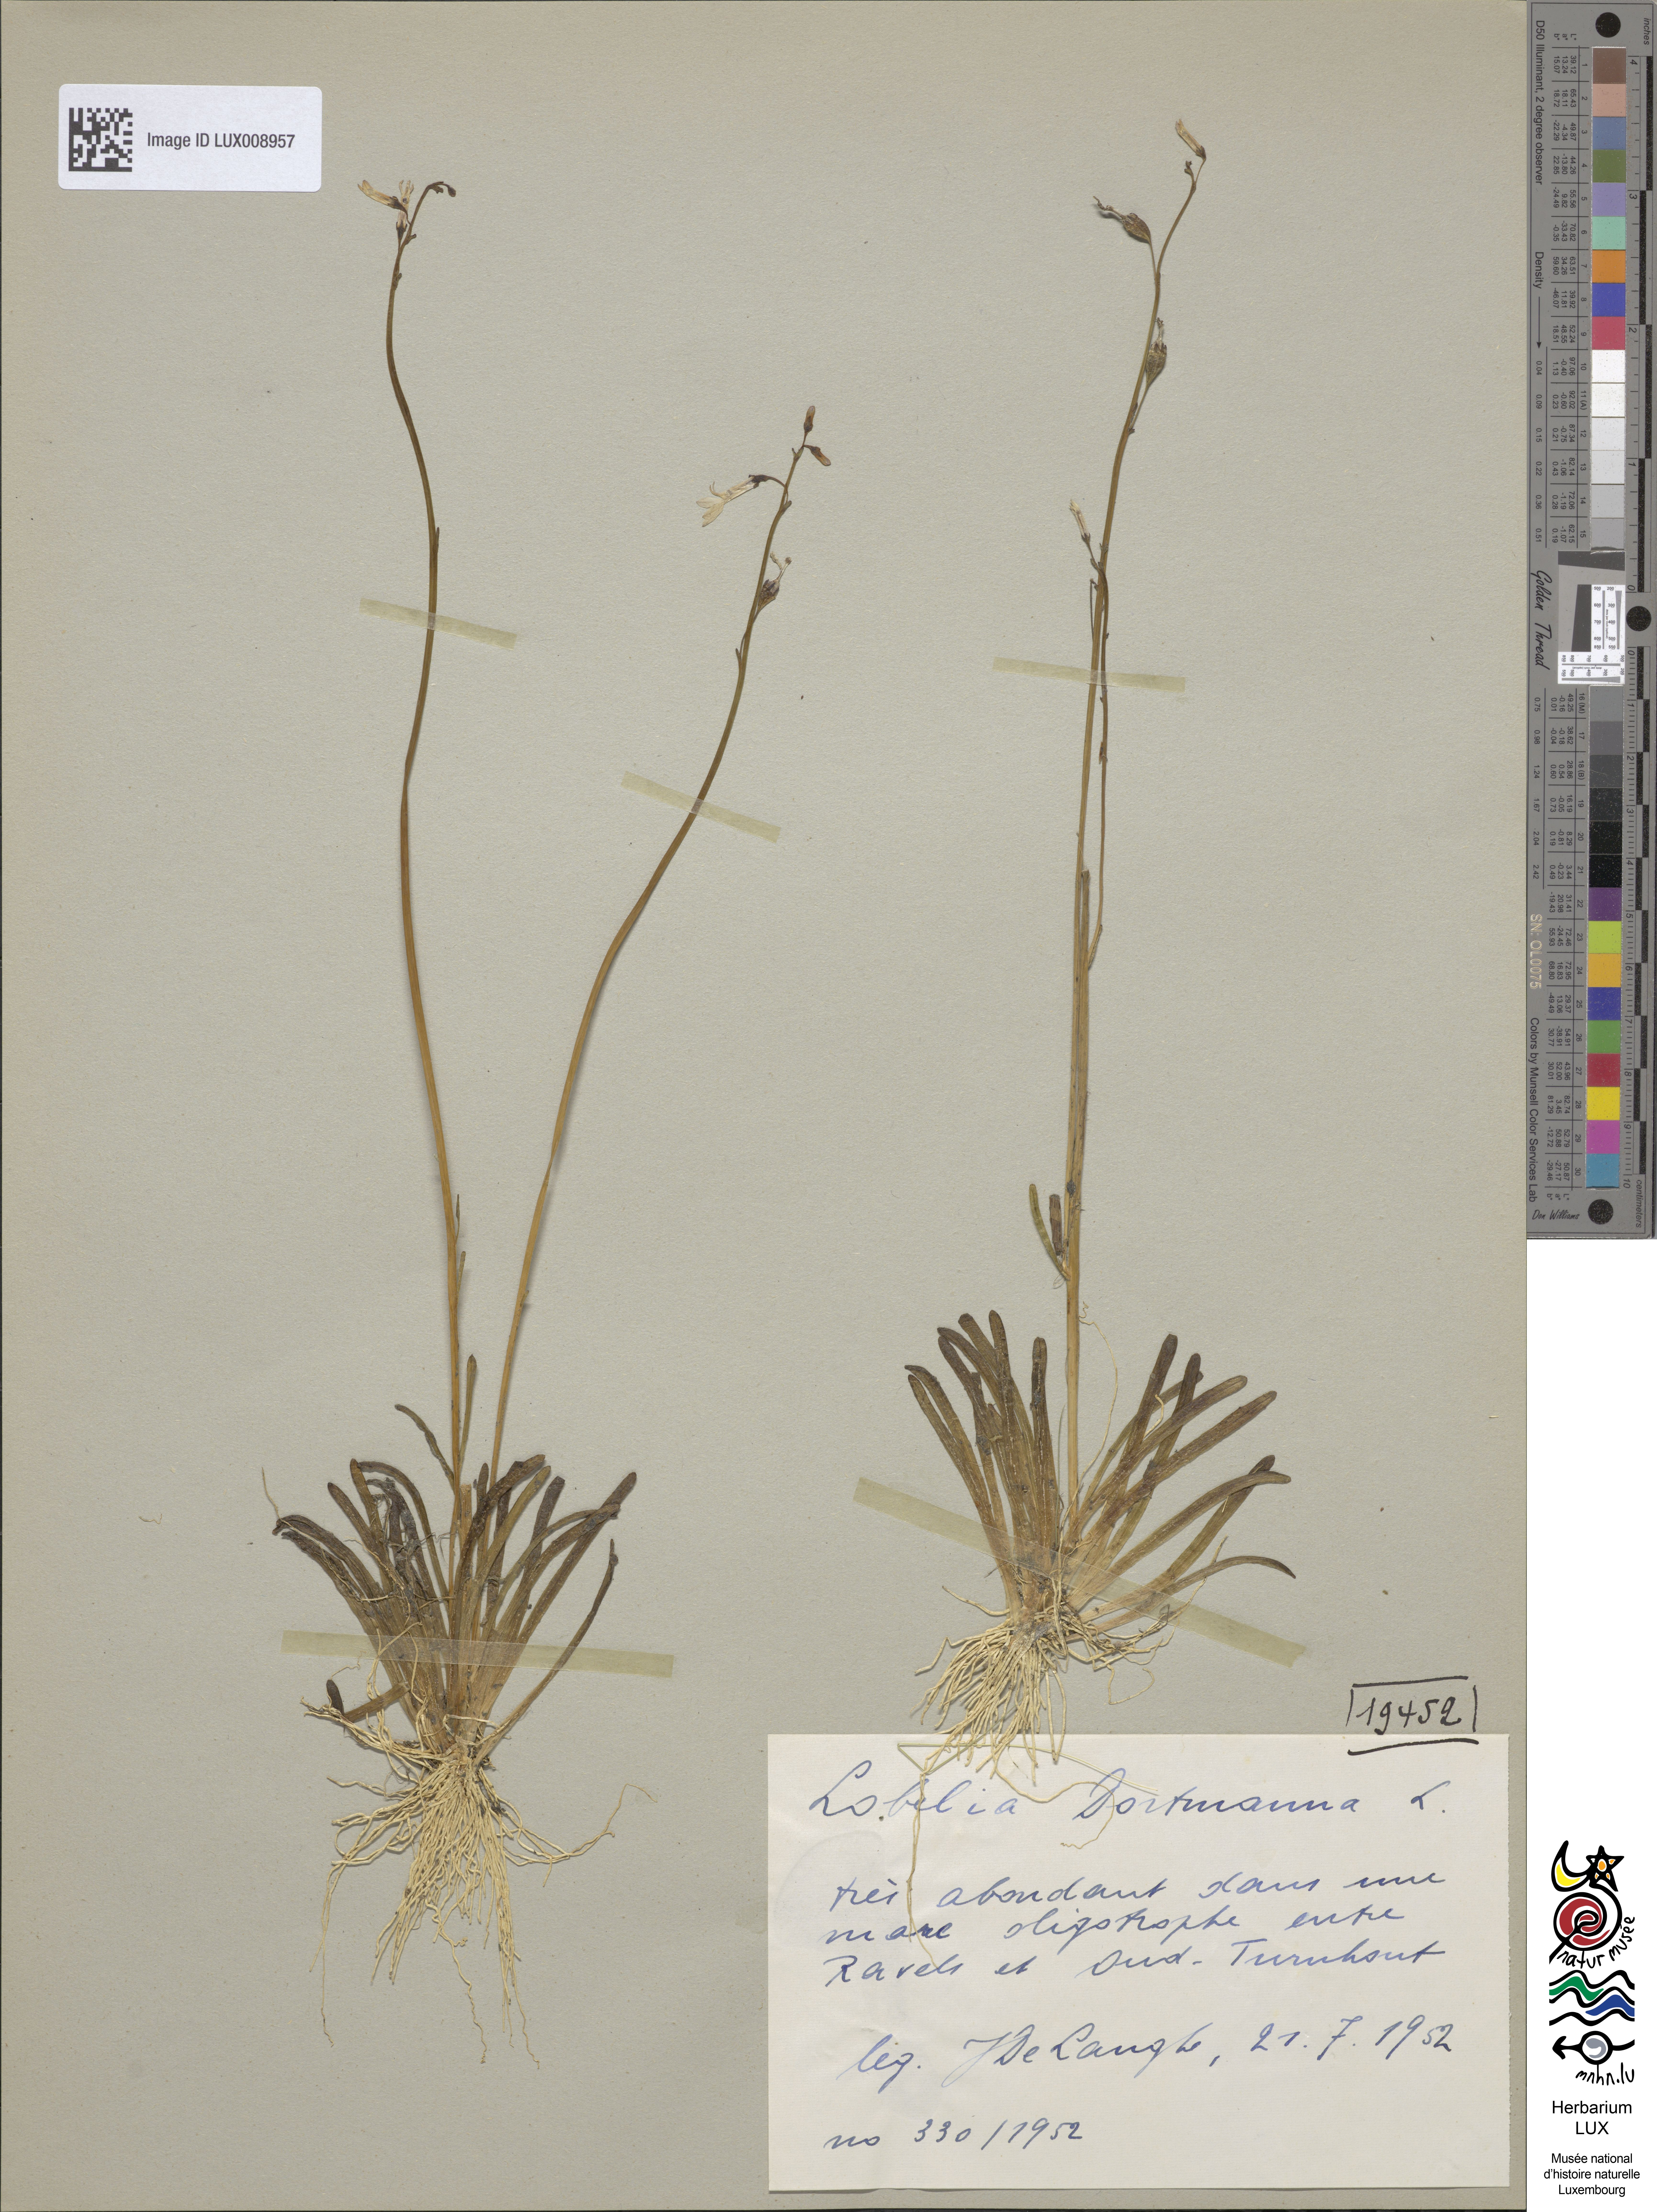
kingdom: Plantae
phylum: Tracheophyta
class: Magnoliopsida
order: Asterales
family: Campanulaceae
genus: Lobelia
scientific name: Lobelia dortmanna
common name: Water lobelia
